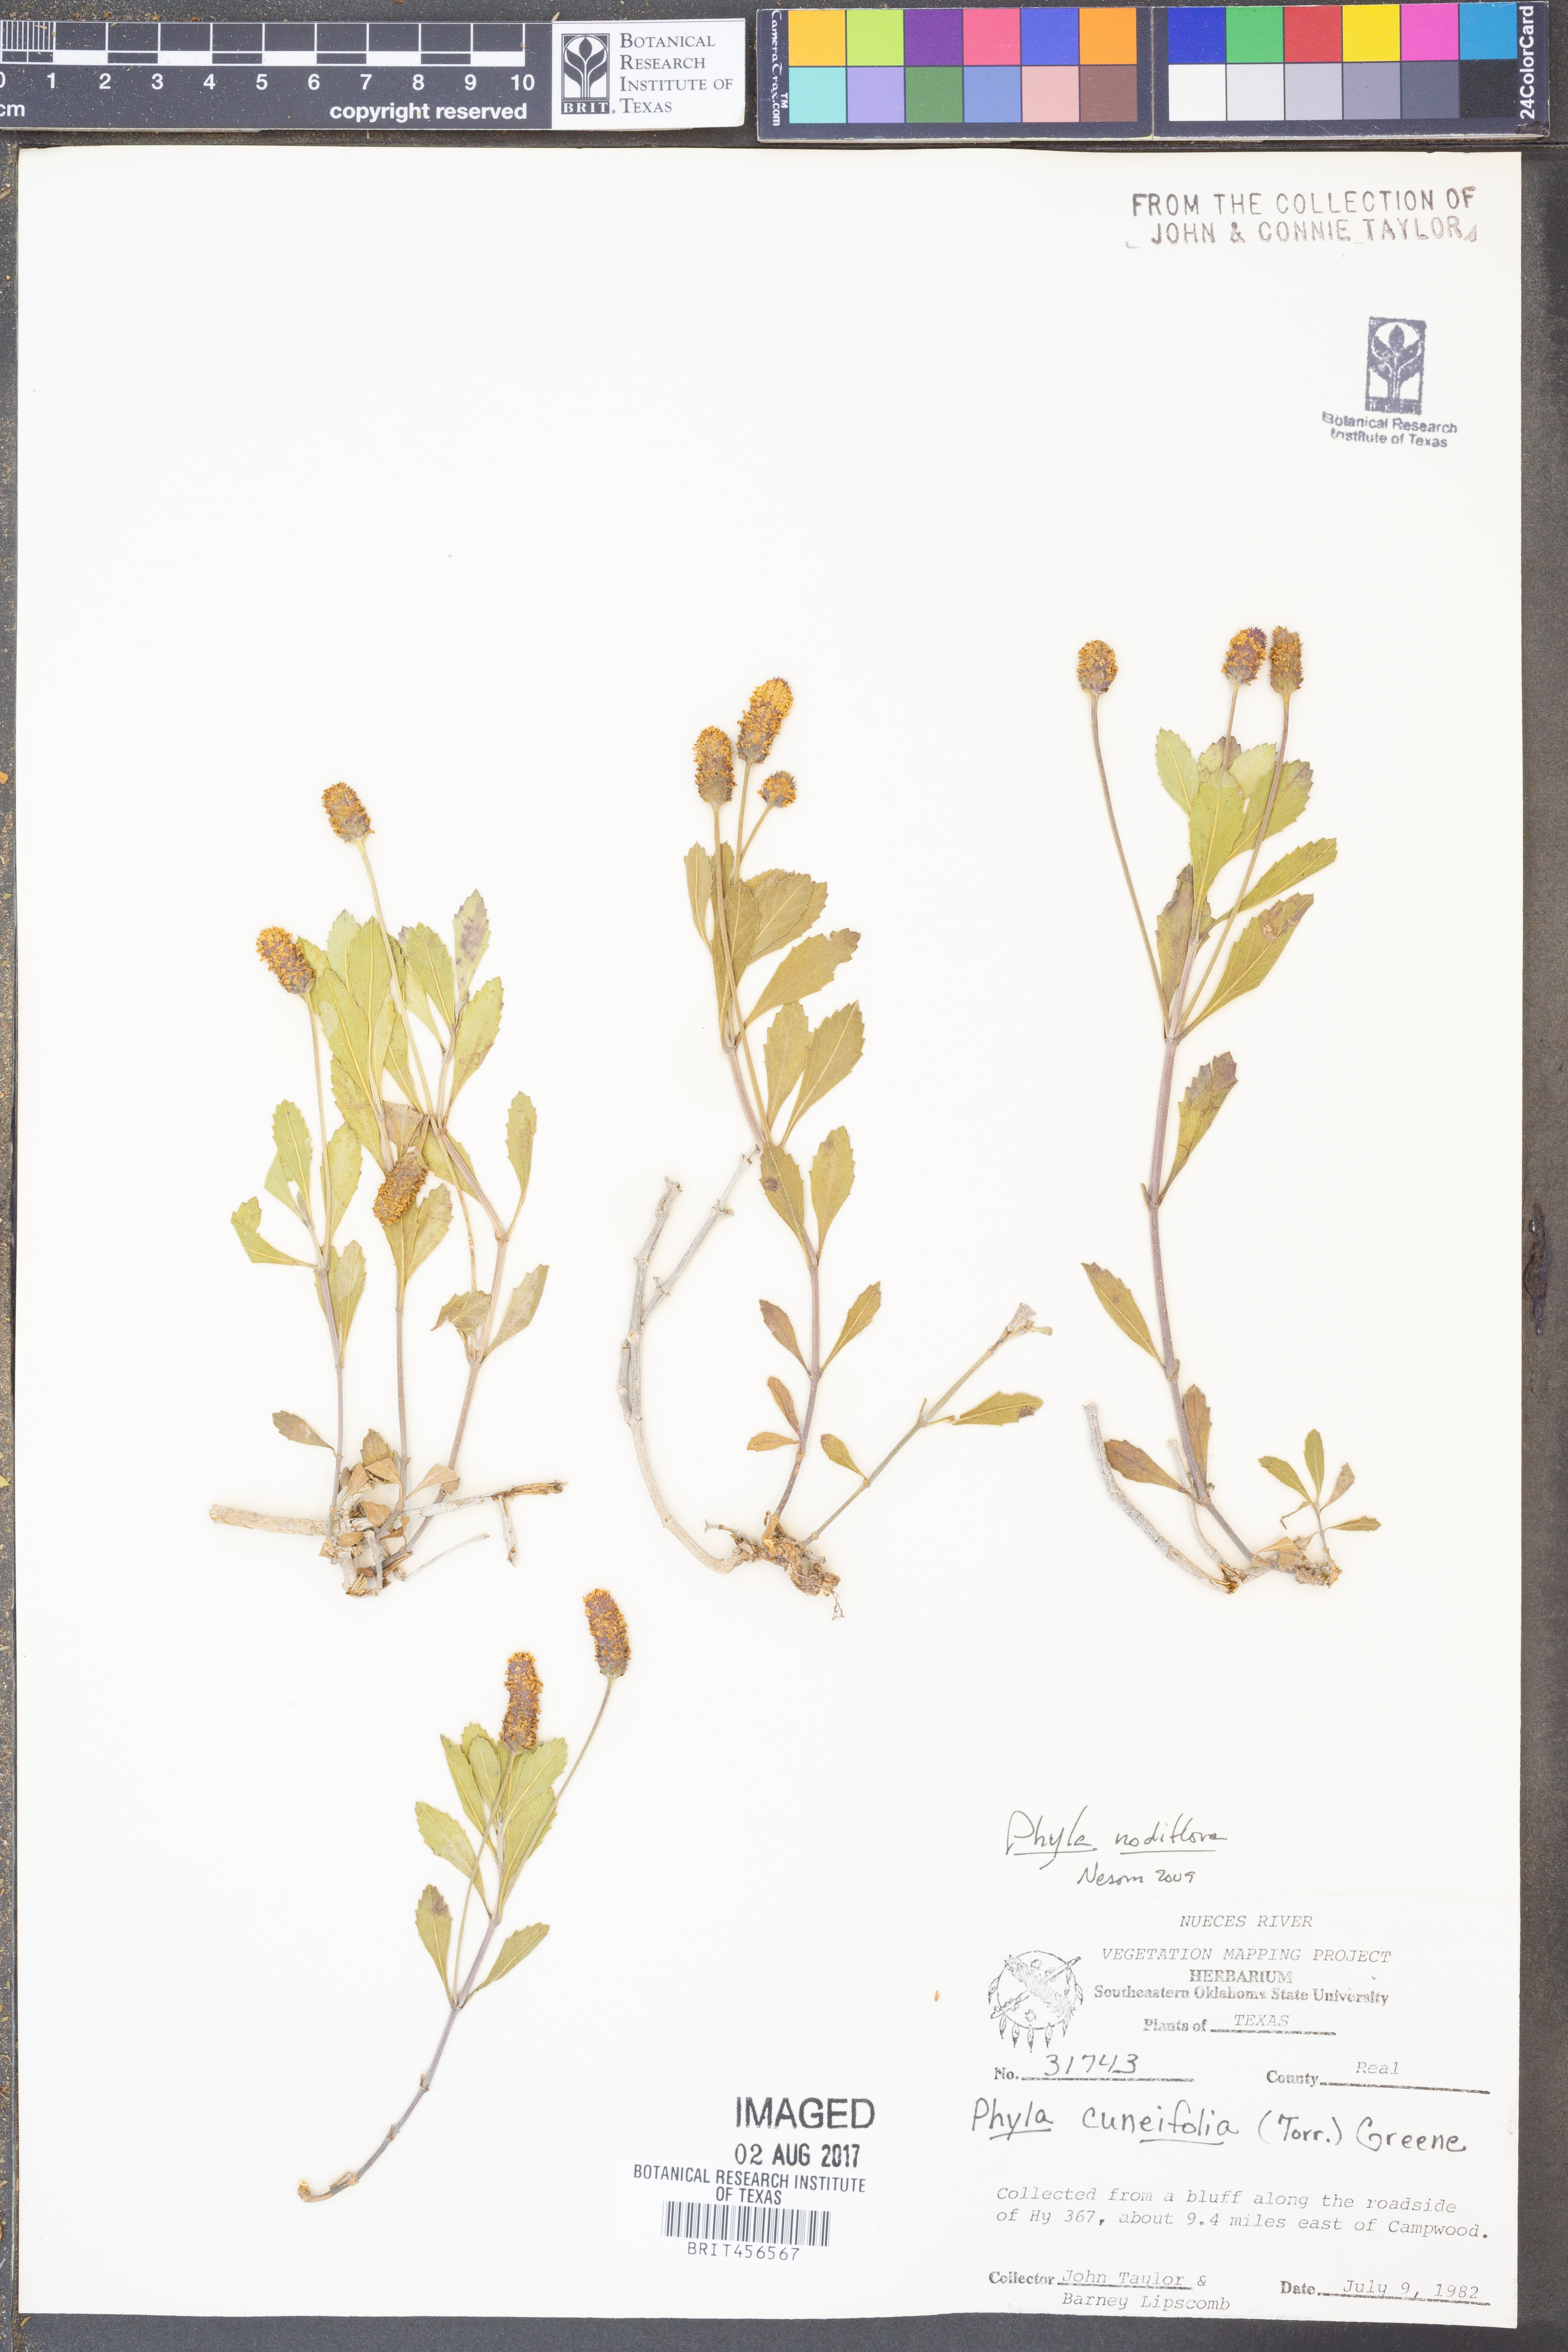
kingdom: Plantae
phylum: Tracheophyta
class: Magnoliopsida
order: Lamiales
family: Verbenaceae
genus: Phyla
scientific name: Phyla nodiflora
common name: Frogfruit
